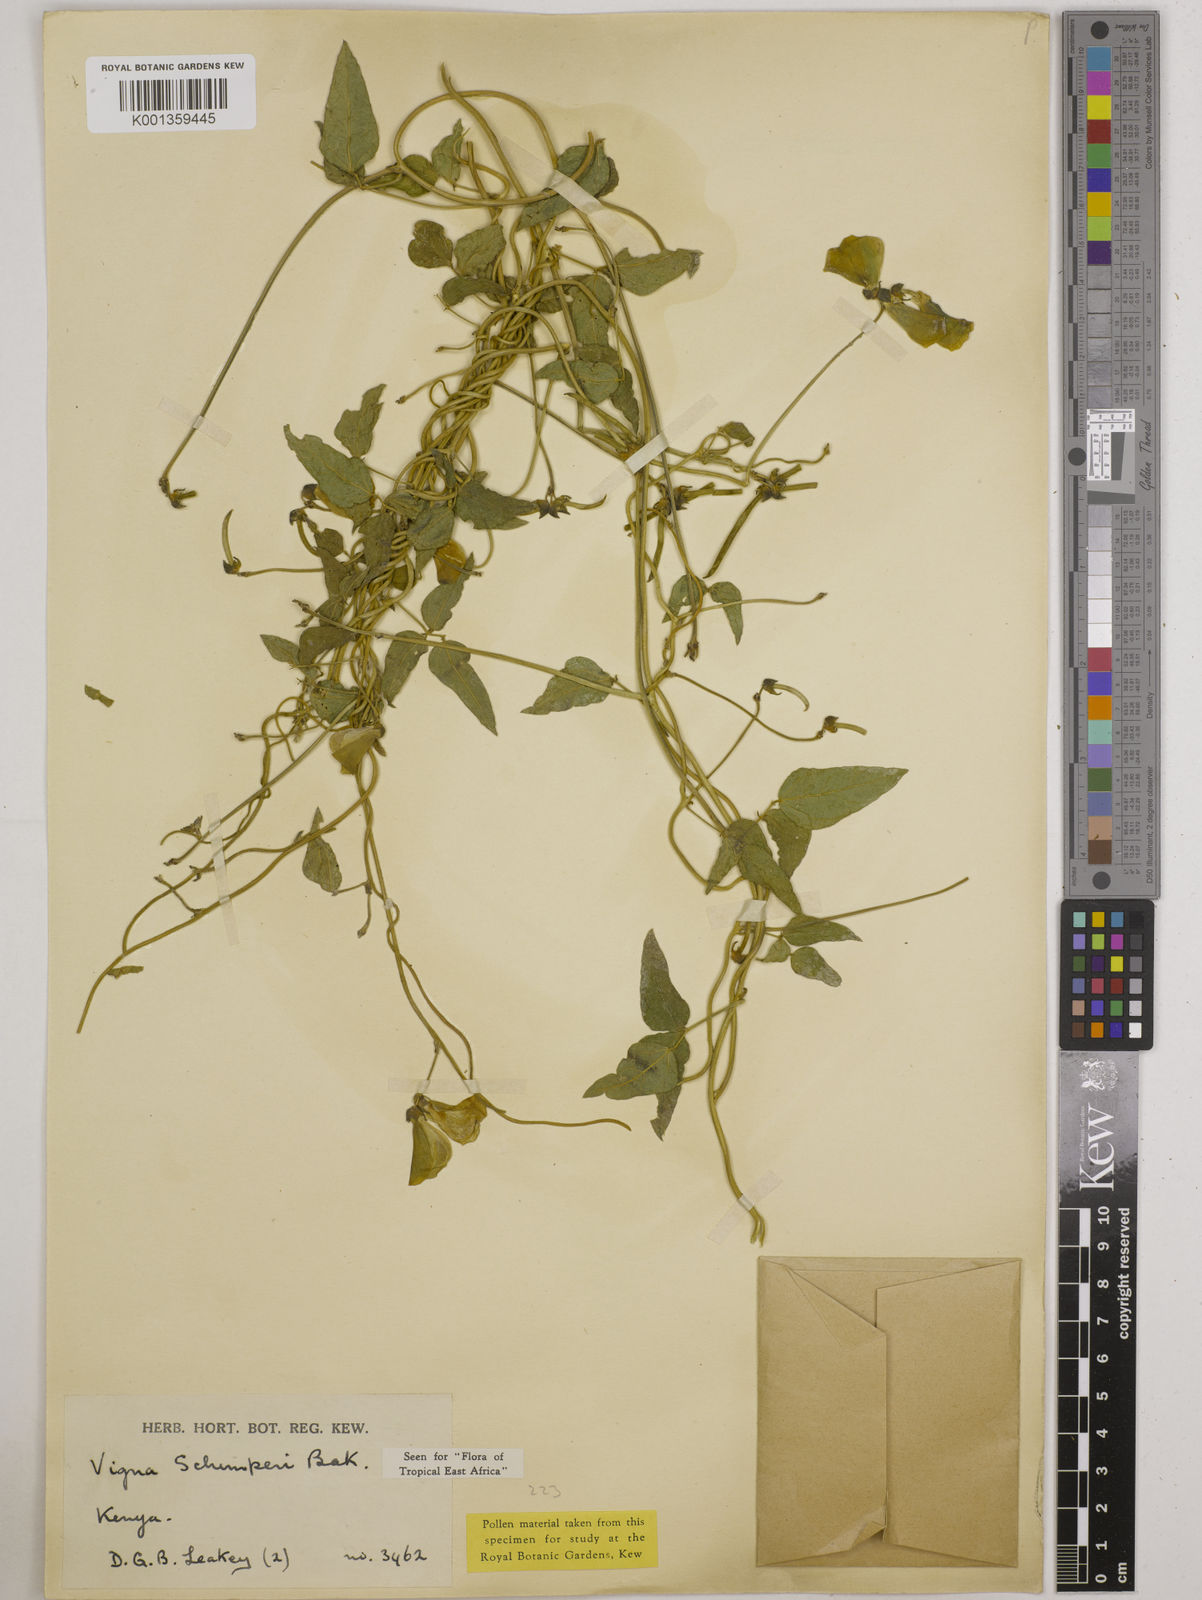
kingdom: Plantae
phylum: Tracheophyta
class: Magnoliopsida
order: Fabales
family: Fabaceae
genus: Vigna
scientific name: Vigna schimperi
